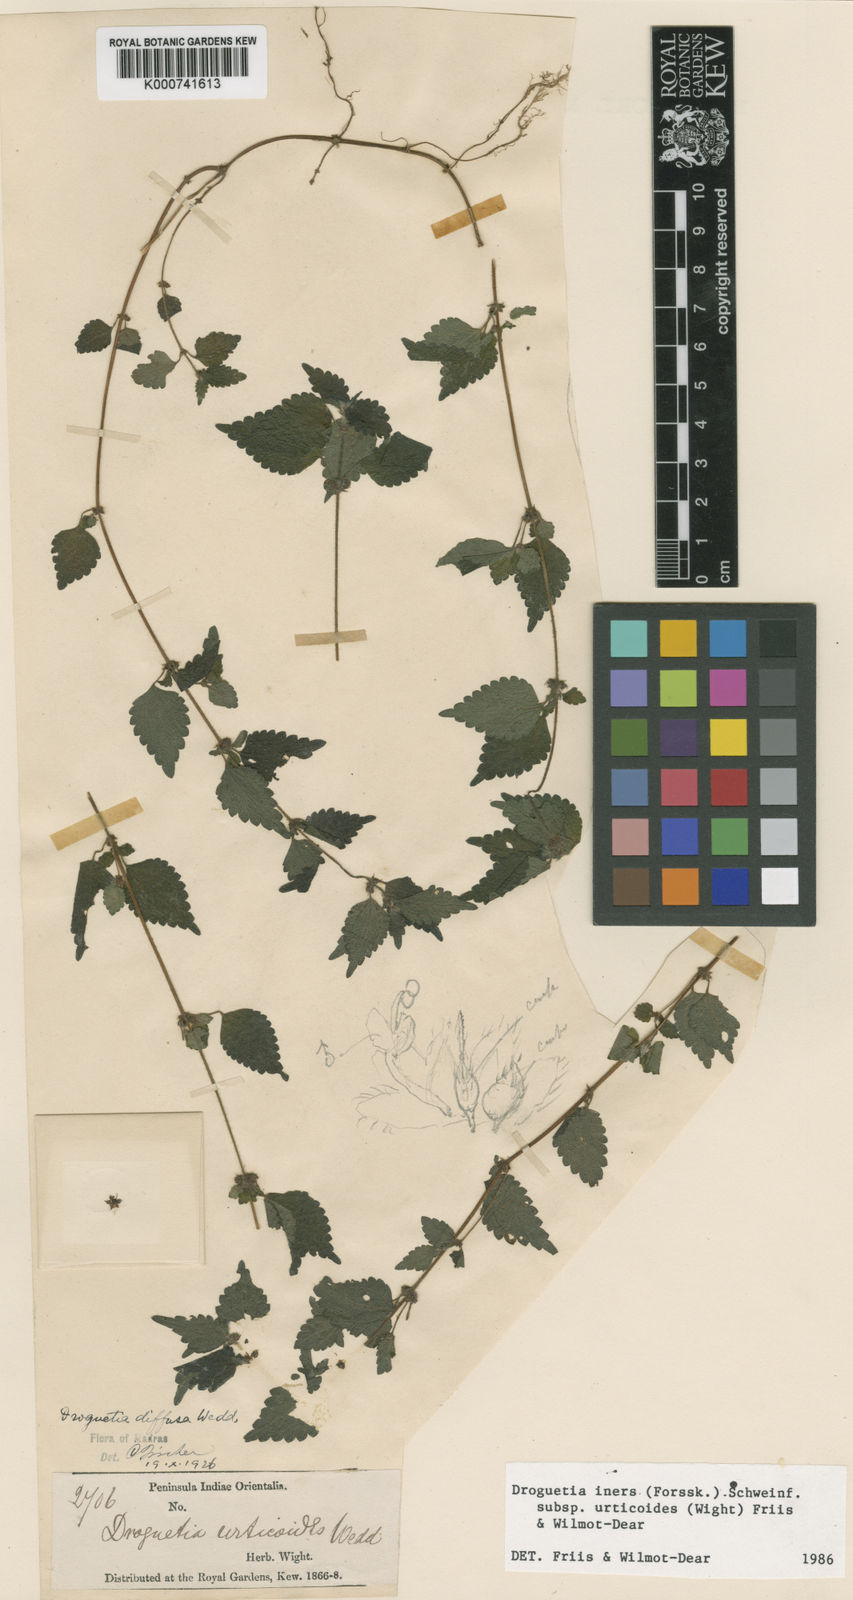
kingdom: Plantae
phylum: Tracheophyta
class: Magnoliopsida
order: Rosales
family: Urticaceae
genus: Droguetia
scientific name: Droguetia iners
